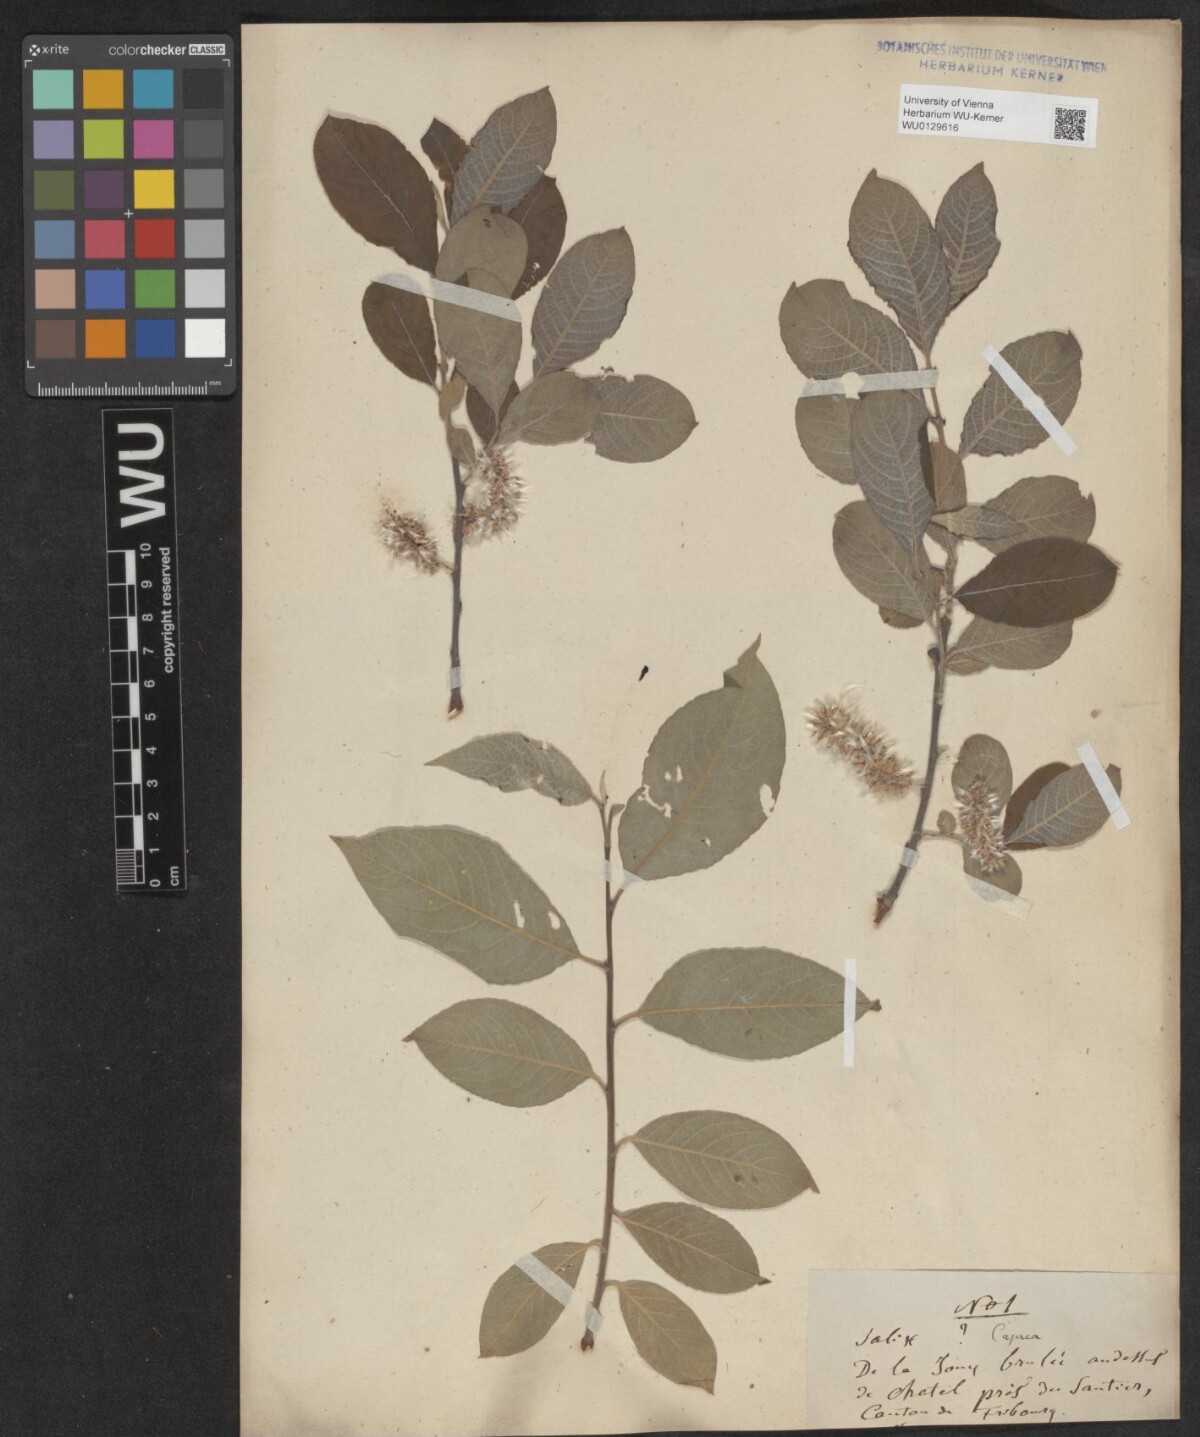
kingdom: Plantae
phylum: Tracheophyta
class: Magnoliopsida
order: Malpighiales
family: Salicaceae
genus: Salix
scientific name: Salix caprea
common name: Goat willow
